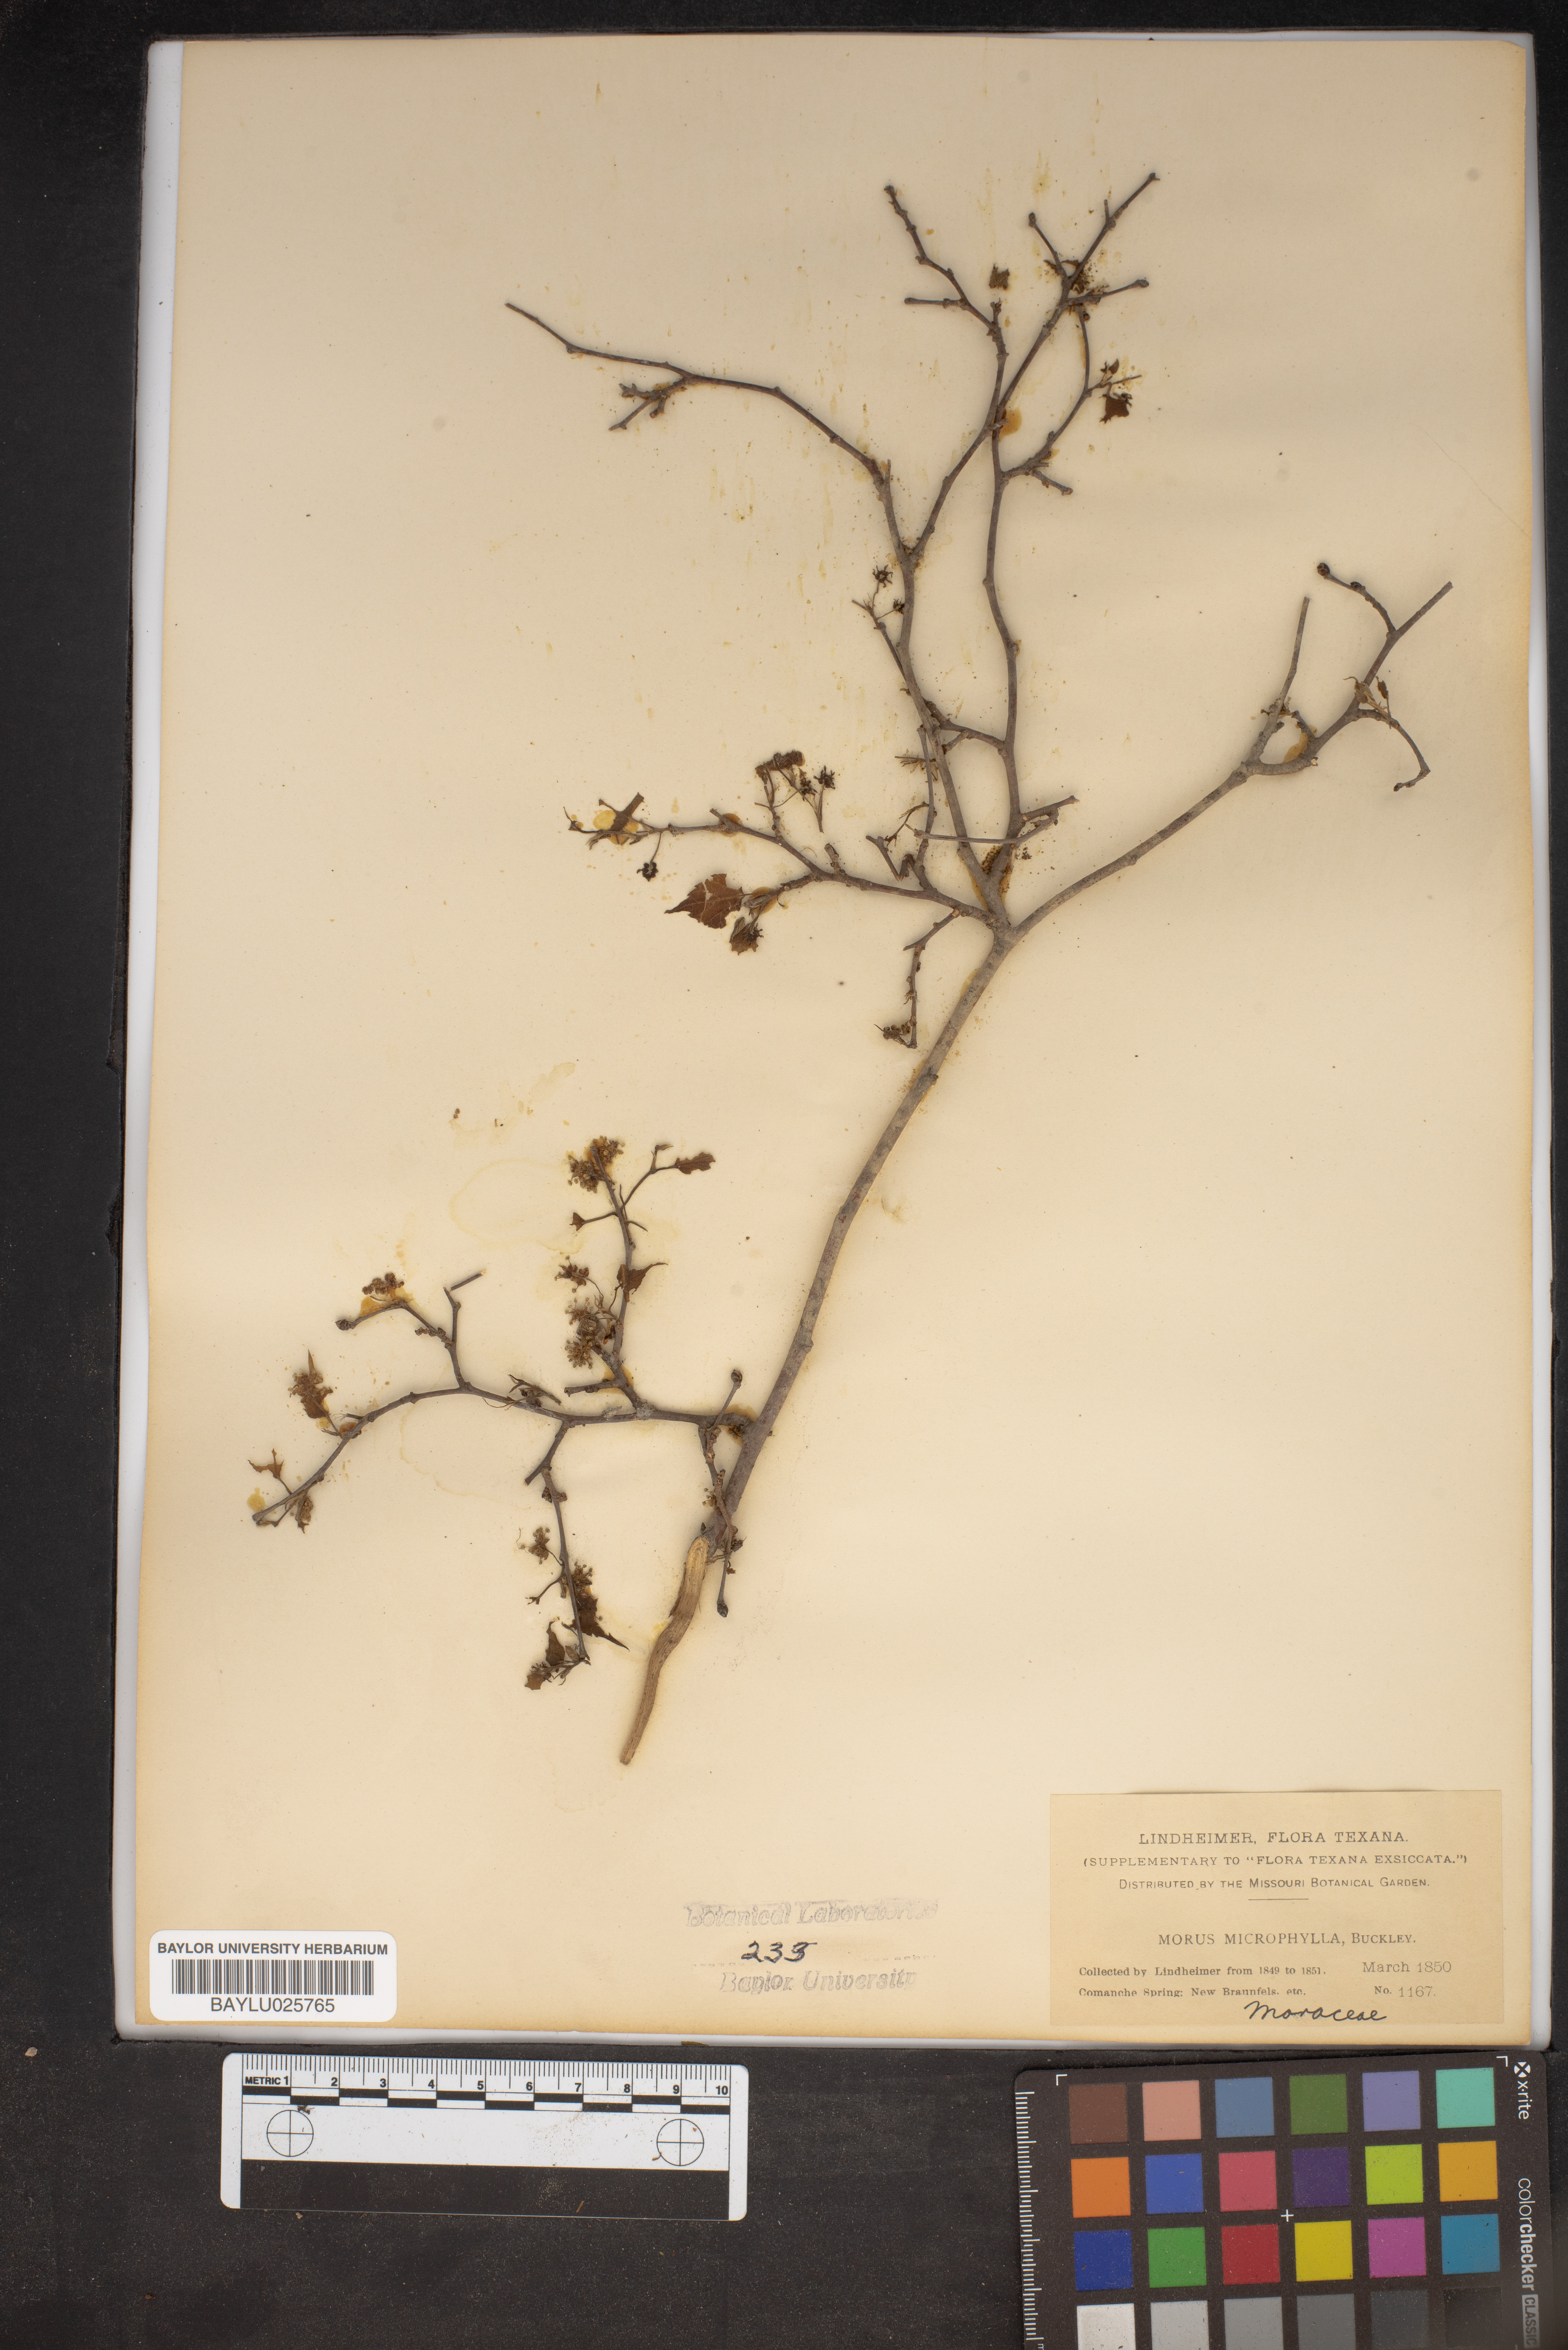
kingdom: Plantae
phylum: Tracheophyta
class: Magnoliopsida
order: Rosales
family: Moraceae
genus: Morus
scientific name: Morus microphylla
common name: Mexican mulberry
